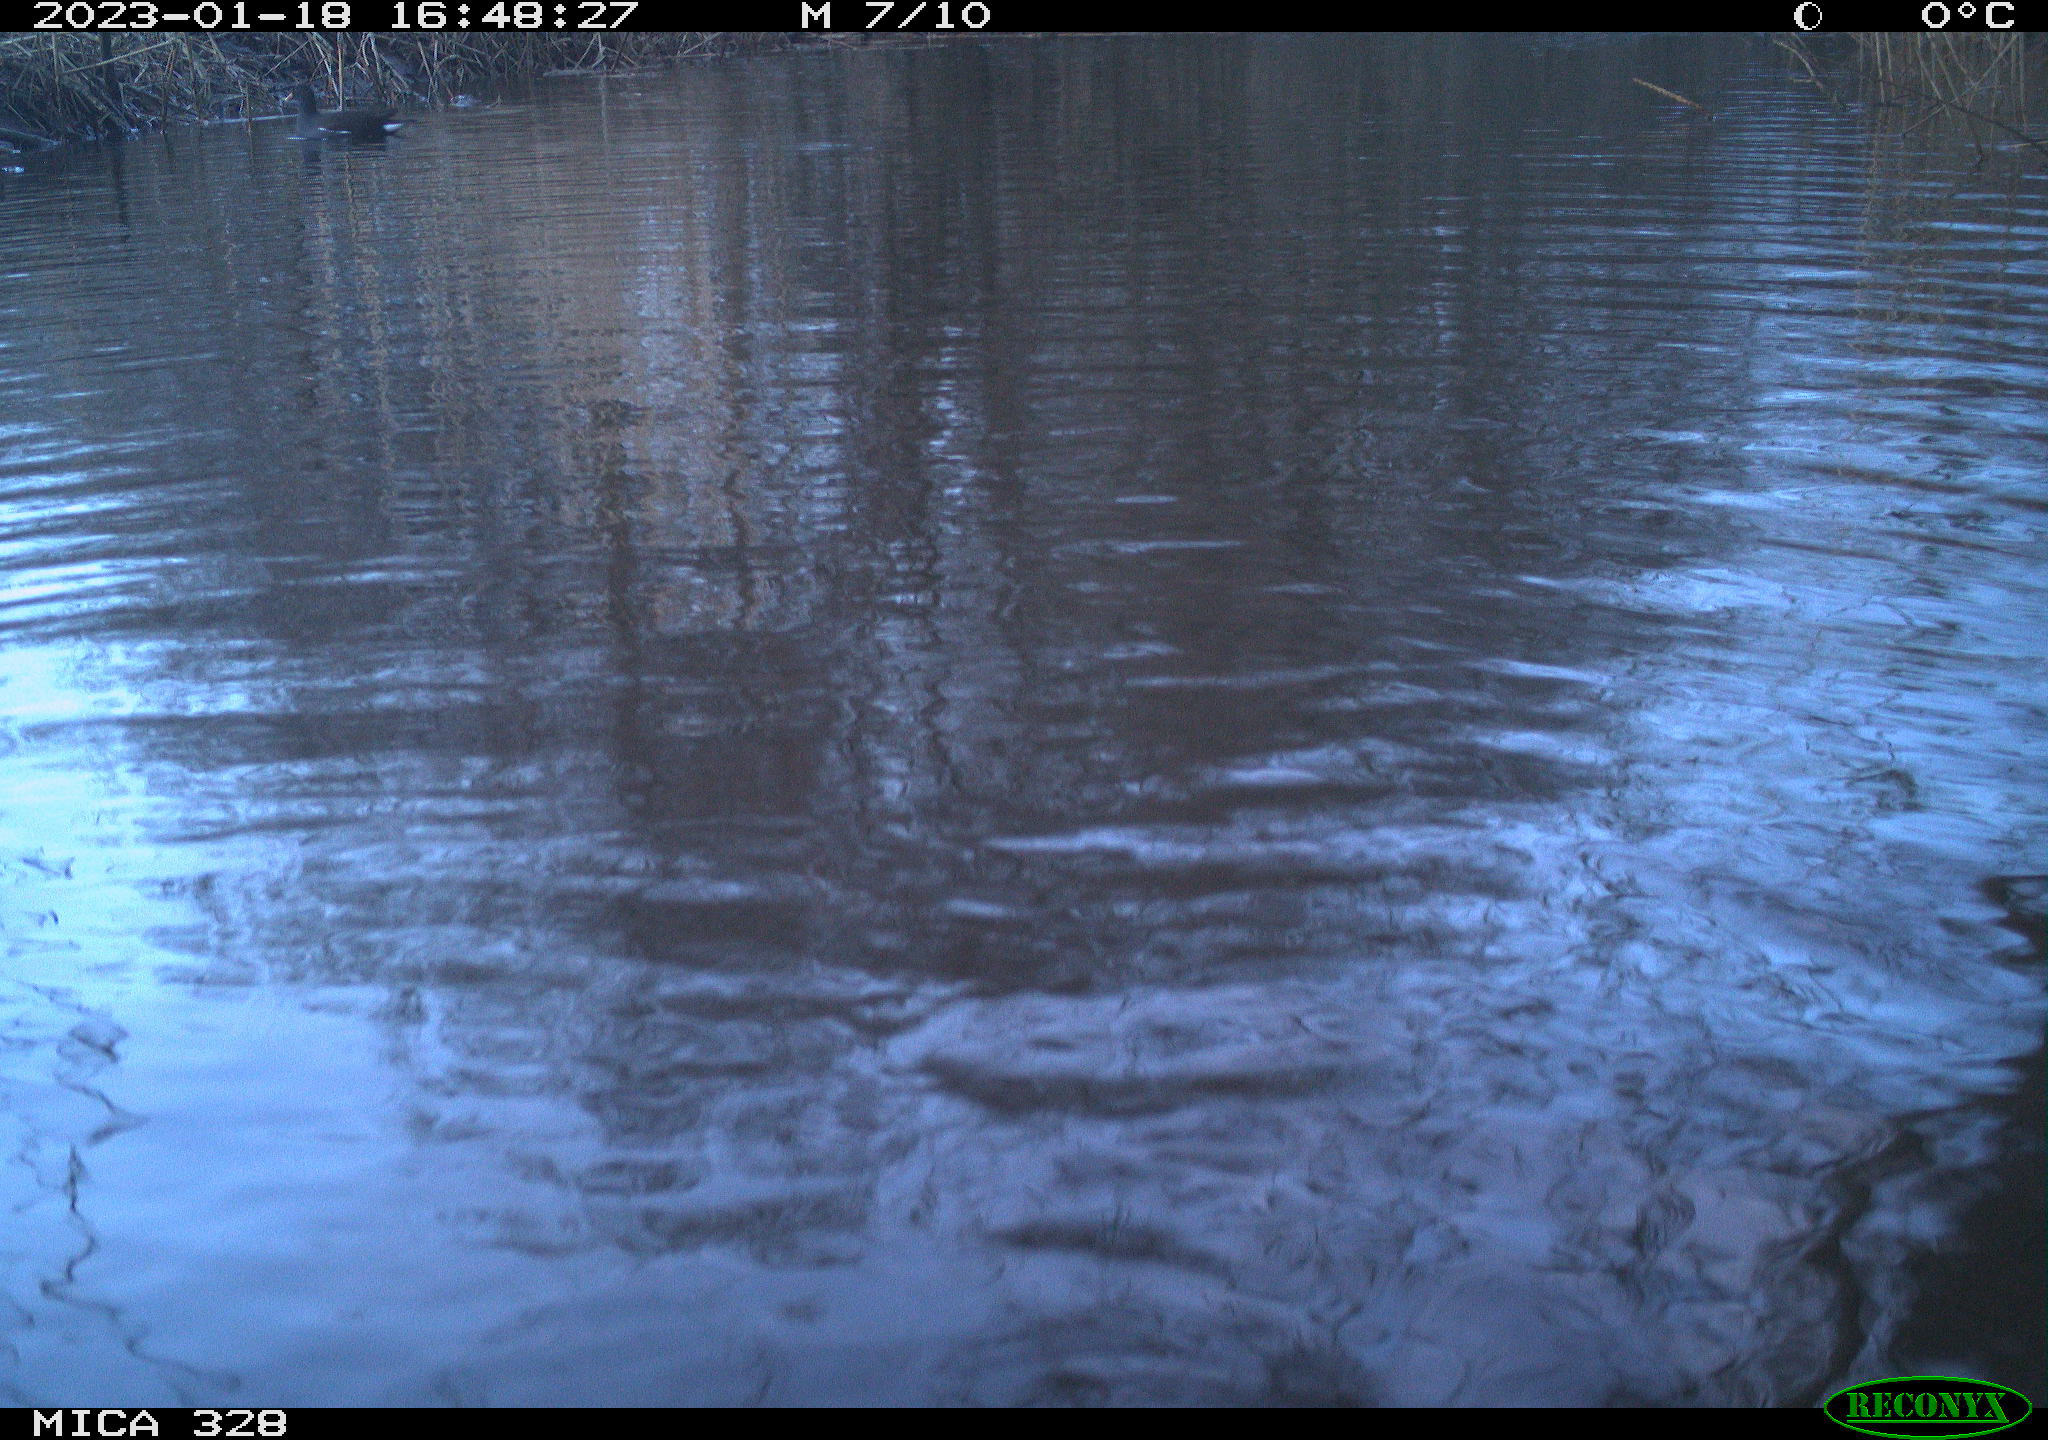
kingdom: Animalia
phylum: Chordata
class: Aves
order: Gruiformes
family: Rallidae
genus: Gallinula
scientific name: Gallinula chloropus
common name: Common moorhen
